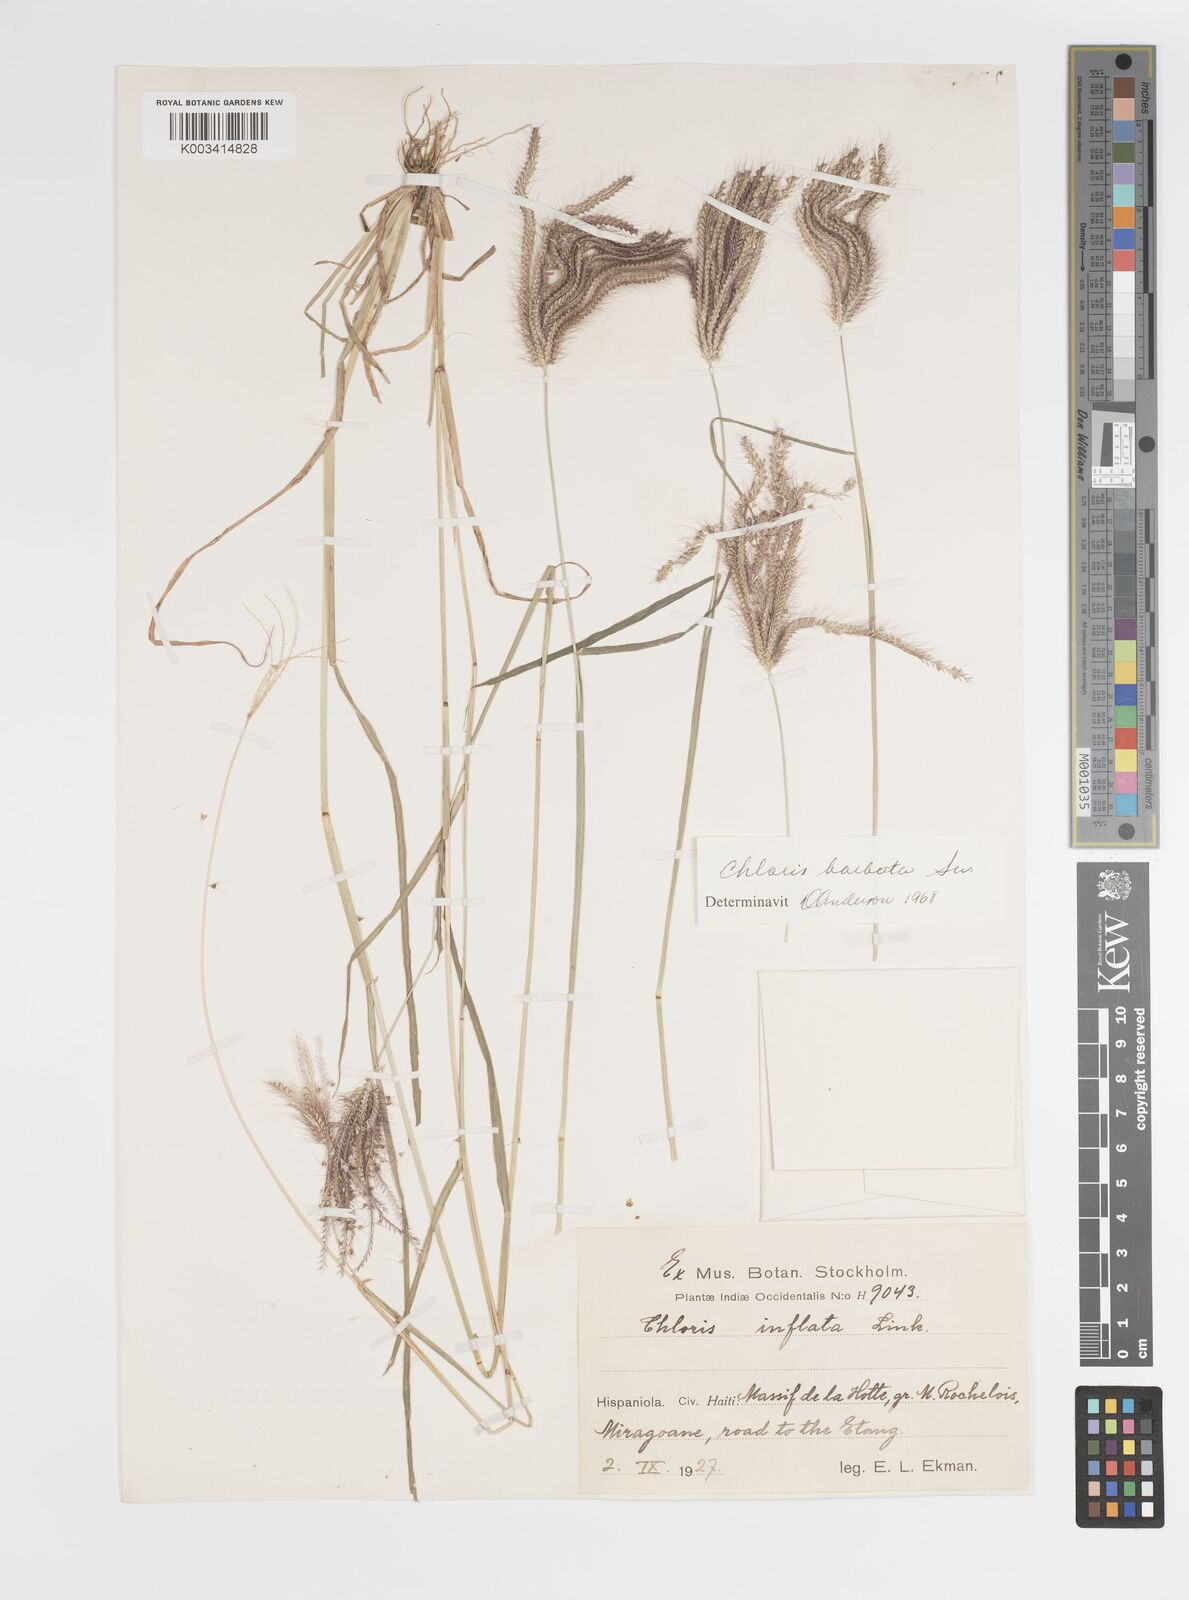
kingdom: Plantae
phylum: Tracheophyta
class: Liliopsida
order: Poales
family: Poaceae
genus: Chloris
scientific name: Chloris barbata
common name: Swollen fingergrass
